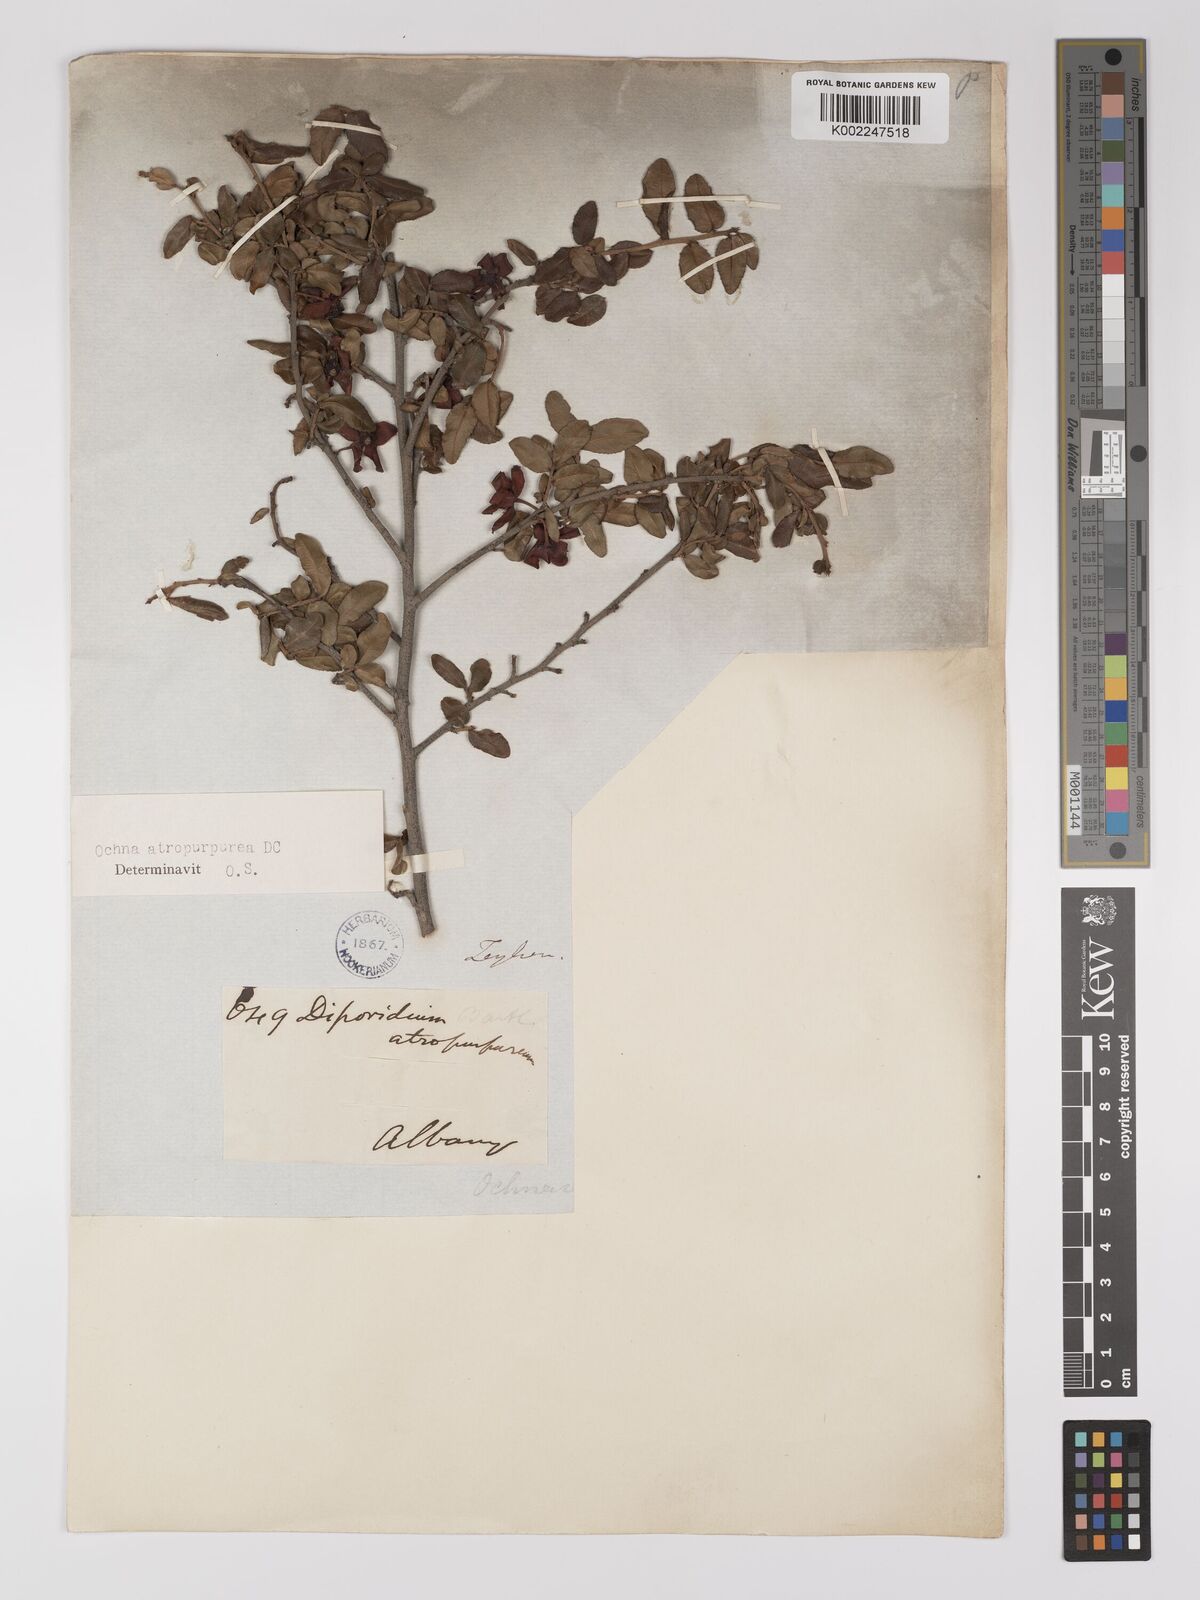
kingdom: Plantae
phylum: Tracheophyta
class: Magnoliopsida
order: Malpighiales
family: Ochnaceae
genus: Ochna
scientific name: Ochna serrulata
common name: Mickey mouse plant
